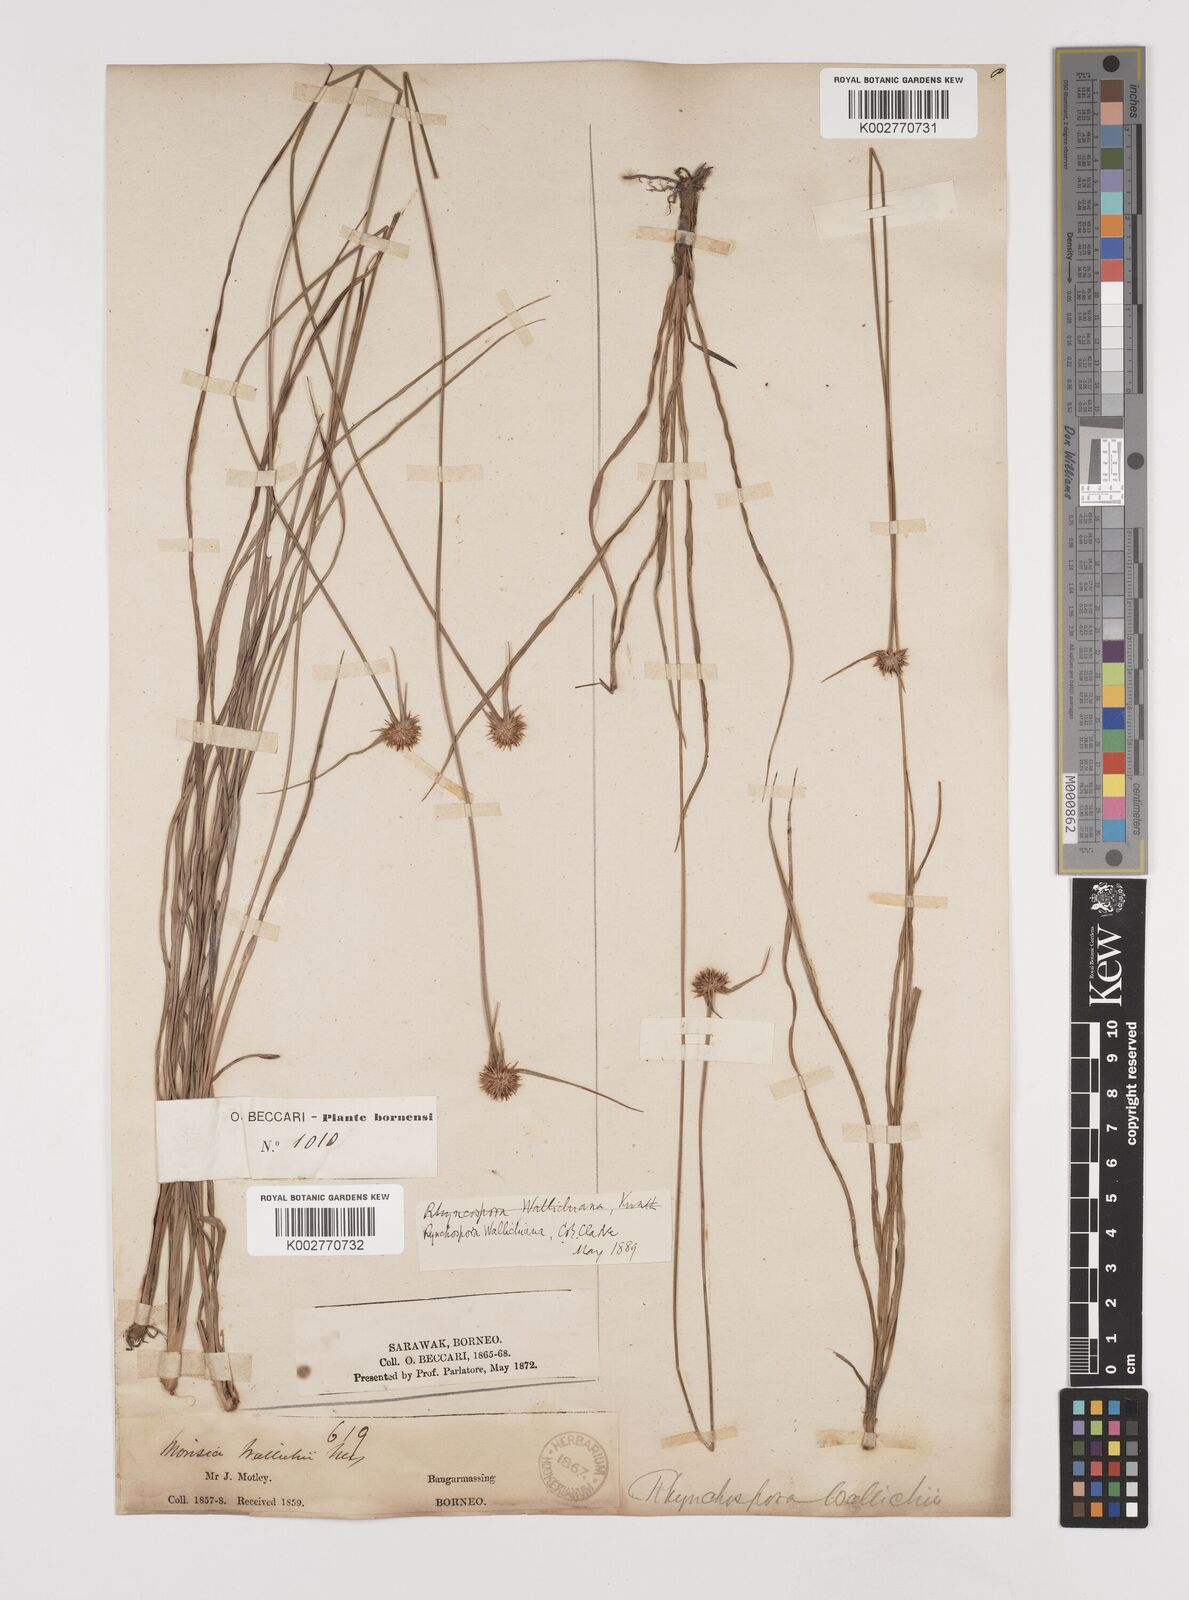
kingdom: Plantae
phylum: Tracheophyta
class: Liliopsida
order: Poales
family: Cyperaceae
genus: Rhynchospora
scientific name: Rhynchospora rubra
